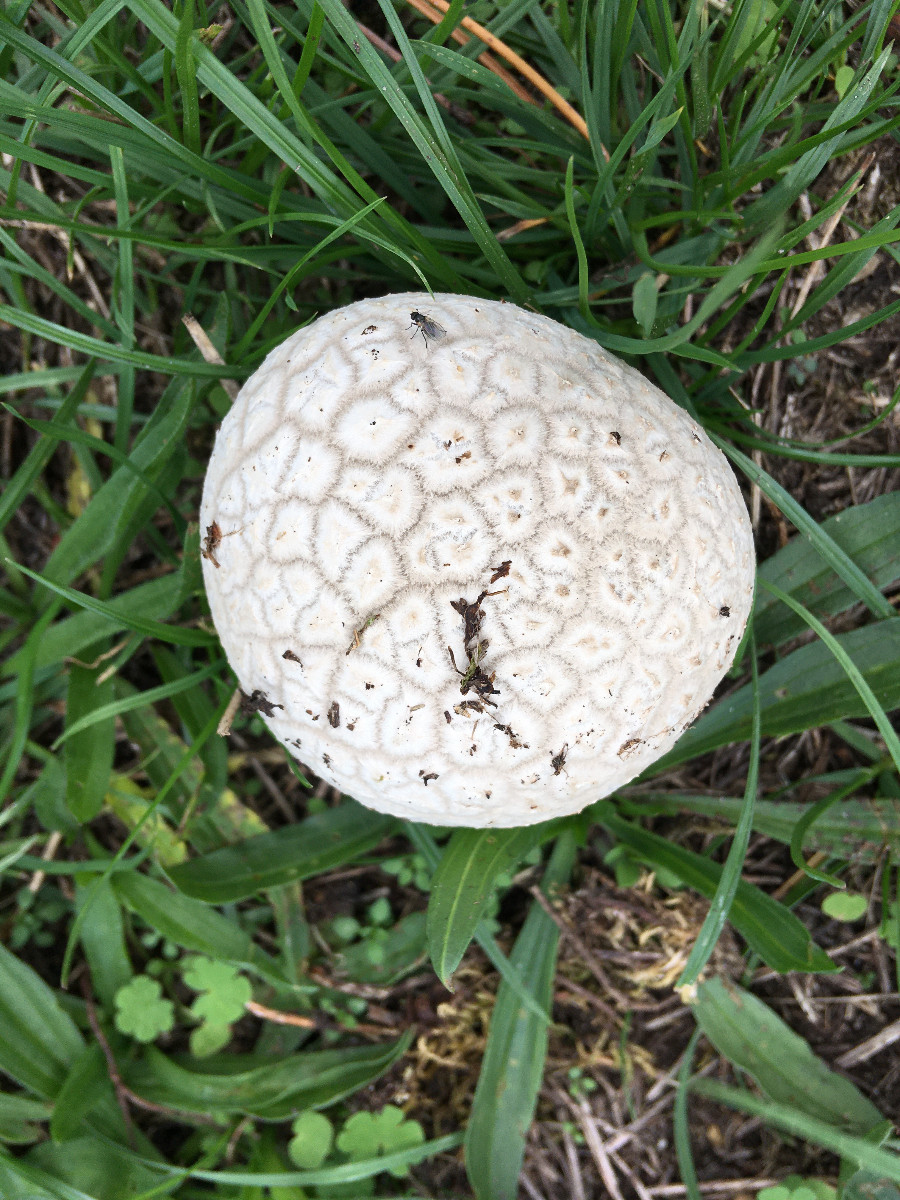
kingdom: Fungi
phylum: Basidiomycota
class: Agaricomycetes
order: Agaricales
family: Lycoperdaceae
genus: Bovistella
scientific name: Bovistella utriformis
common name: skællet støvbold
